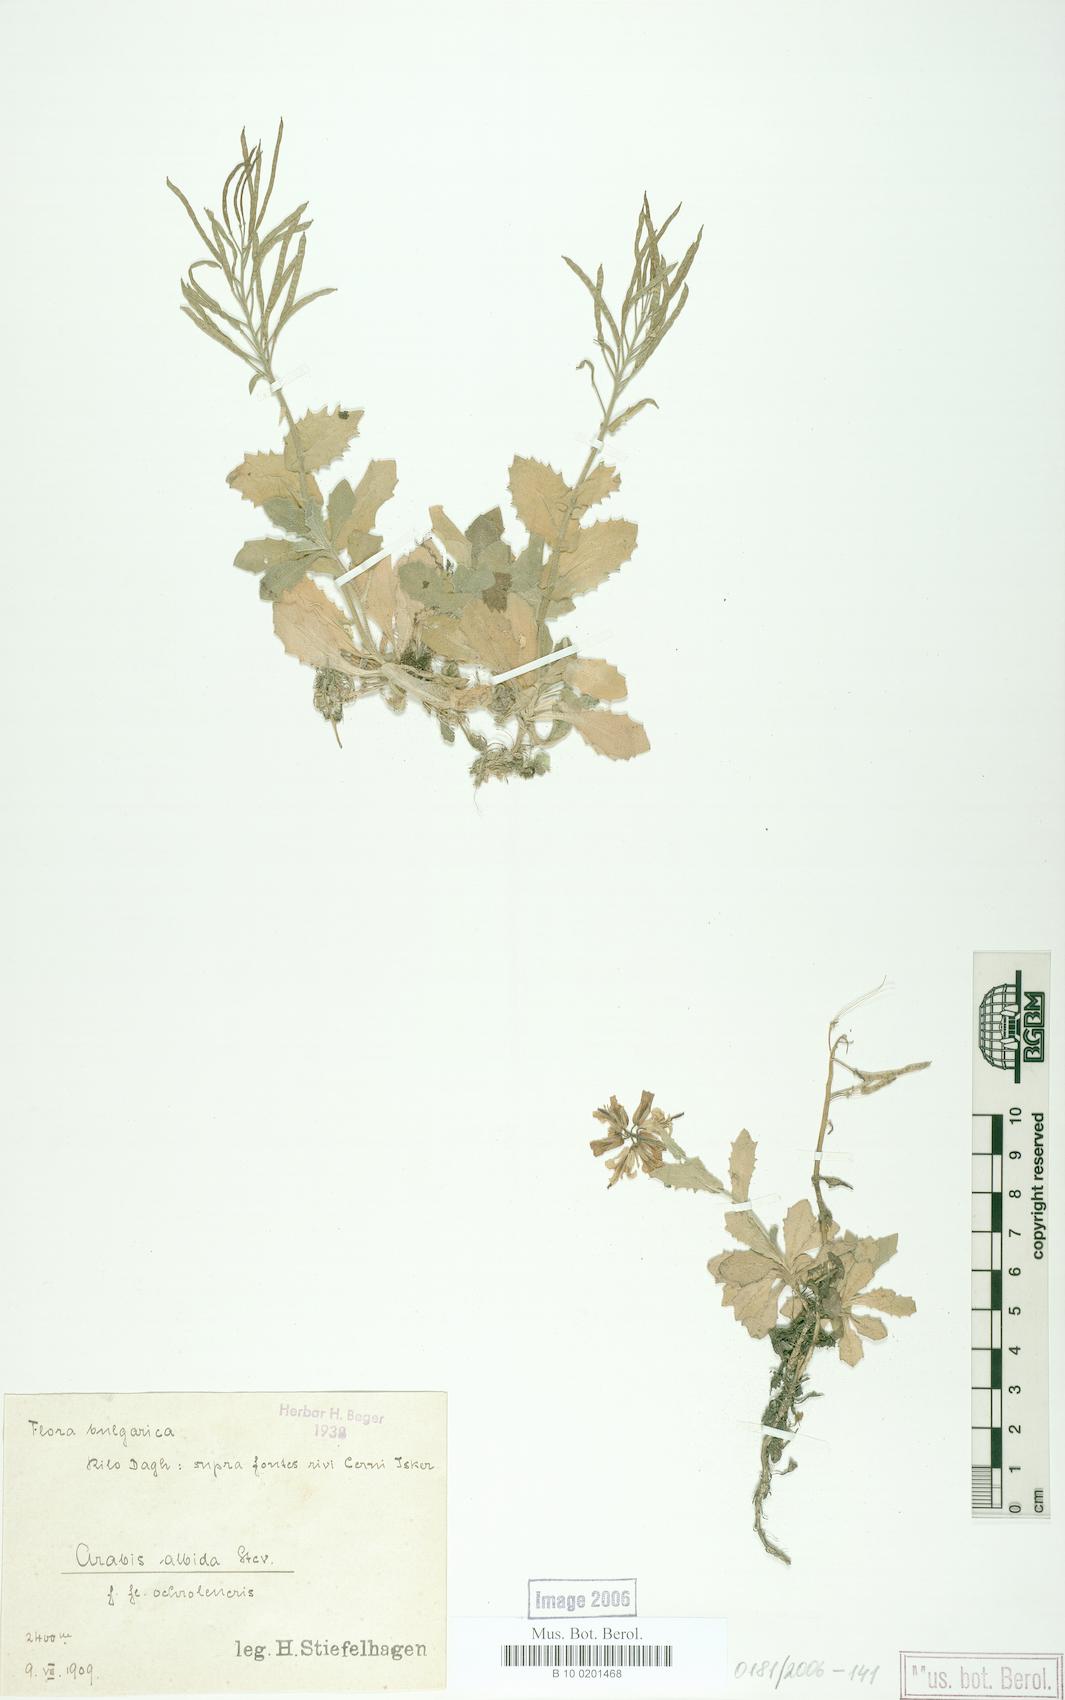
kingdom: Plantae
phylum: Tracheophyta
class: Magnoliopsida
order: Brassicales
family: Brassicaceae
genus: Arabis
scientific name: Arabis alpina
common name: Alpine rock-cress
